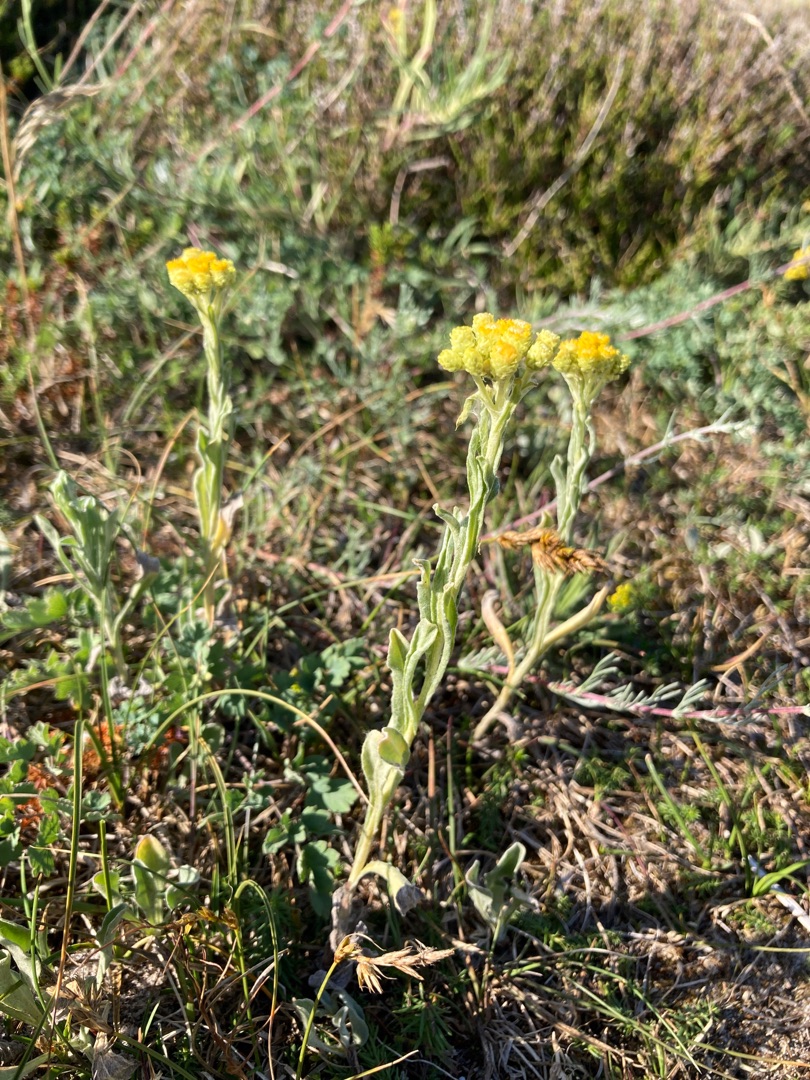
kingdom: Plantae
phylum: Tracheophyta
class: Magnoliopsida
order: Asterales
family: Asteraceae
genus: Helichrysum
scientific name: Helichrysum arenarium
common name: Gul evighedsblomst
